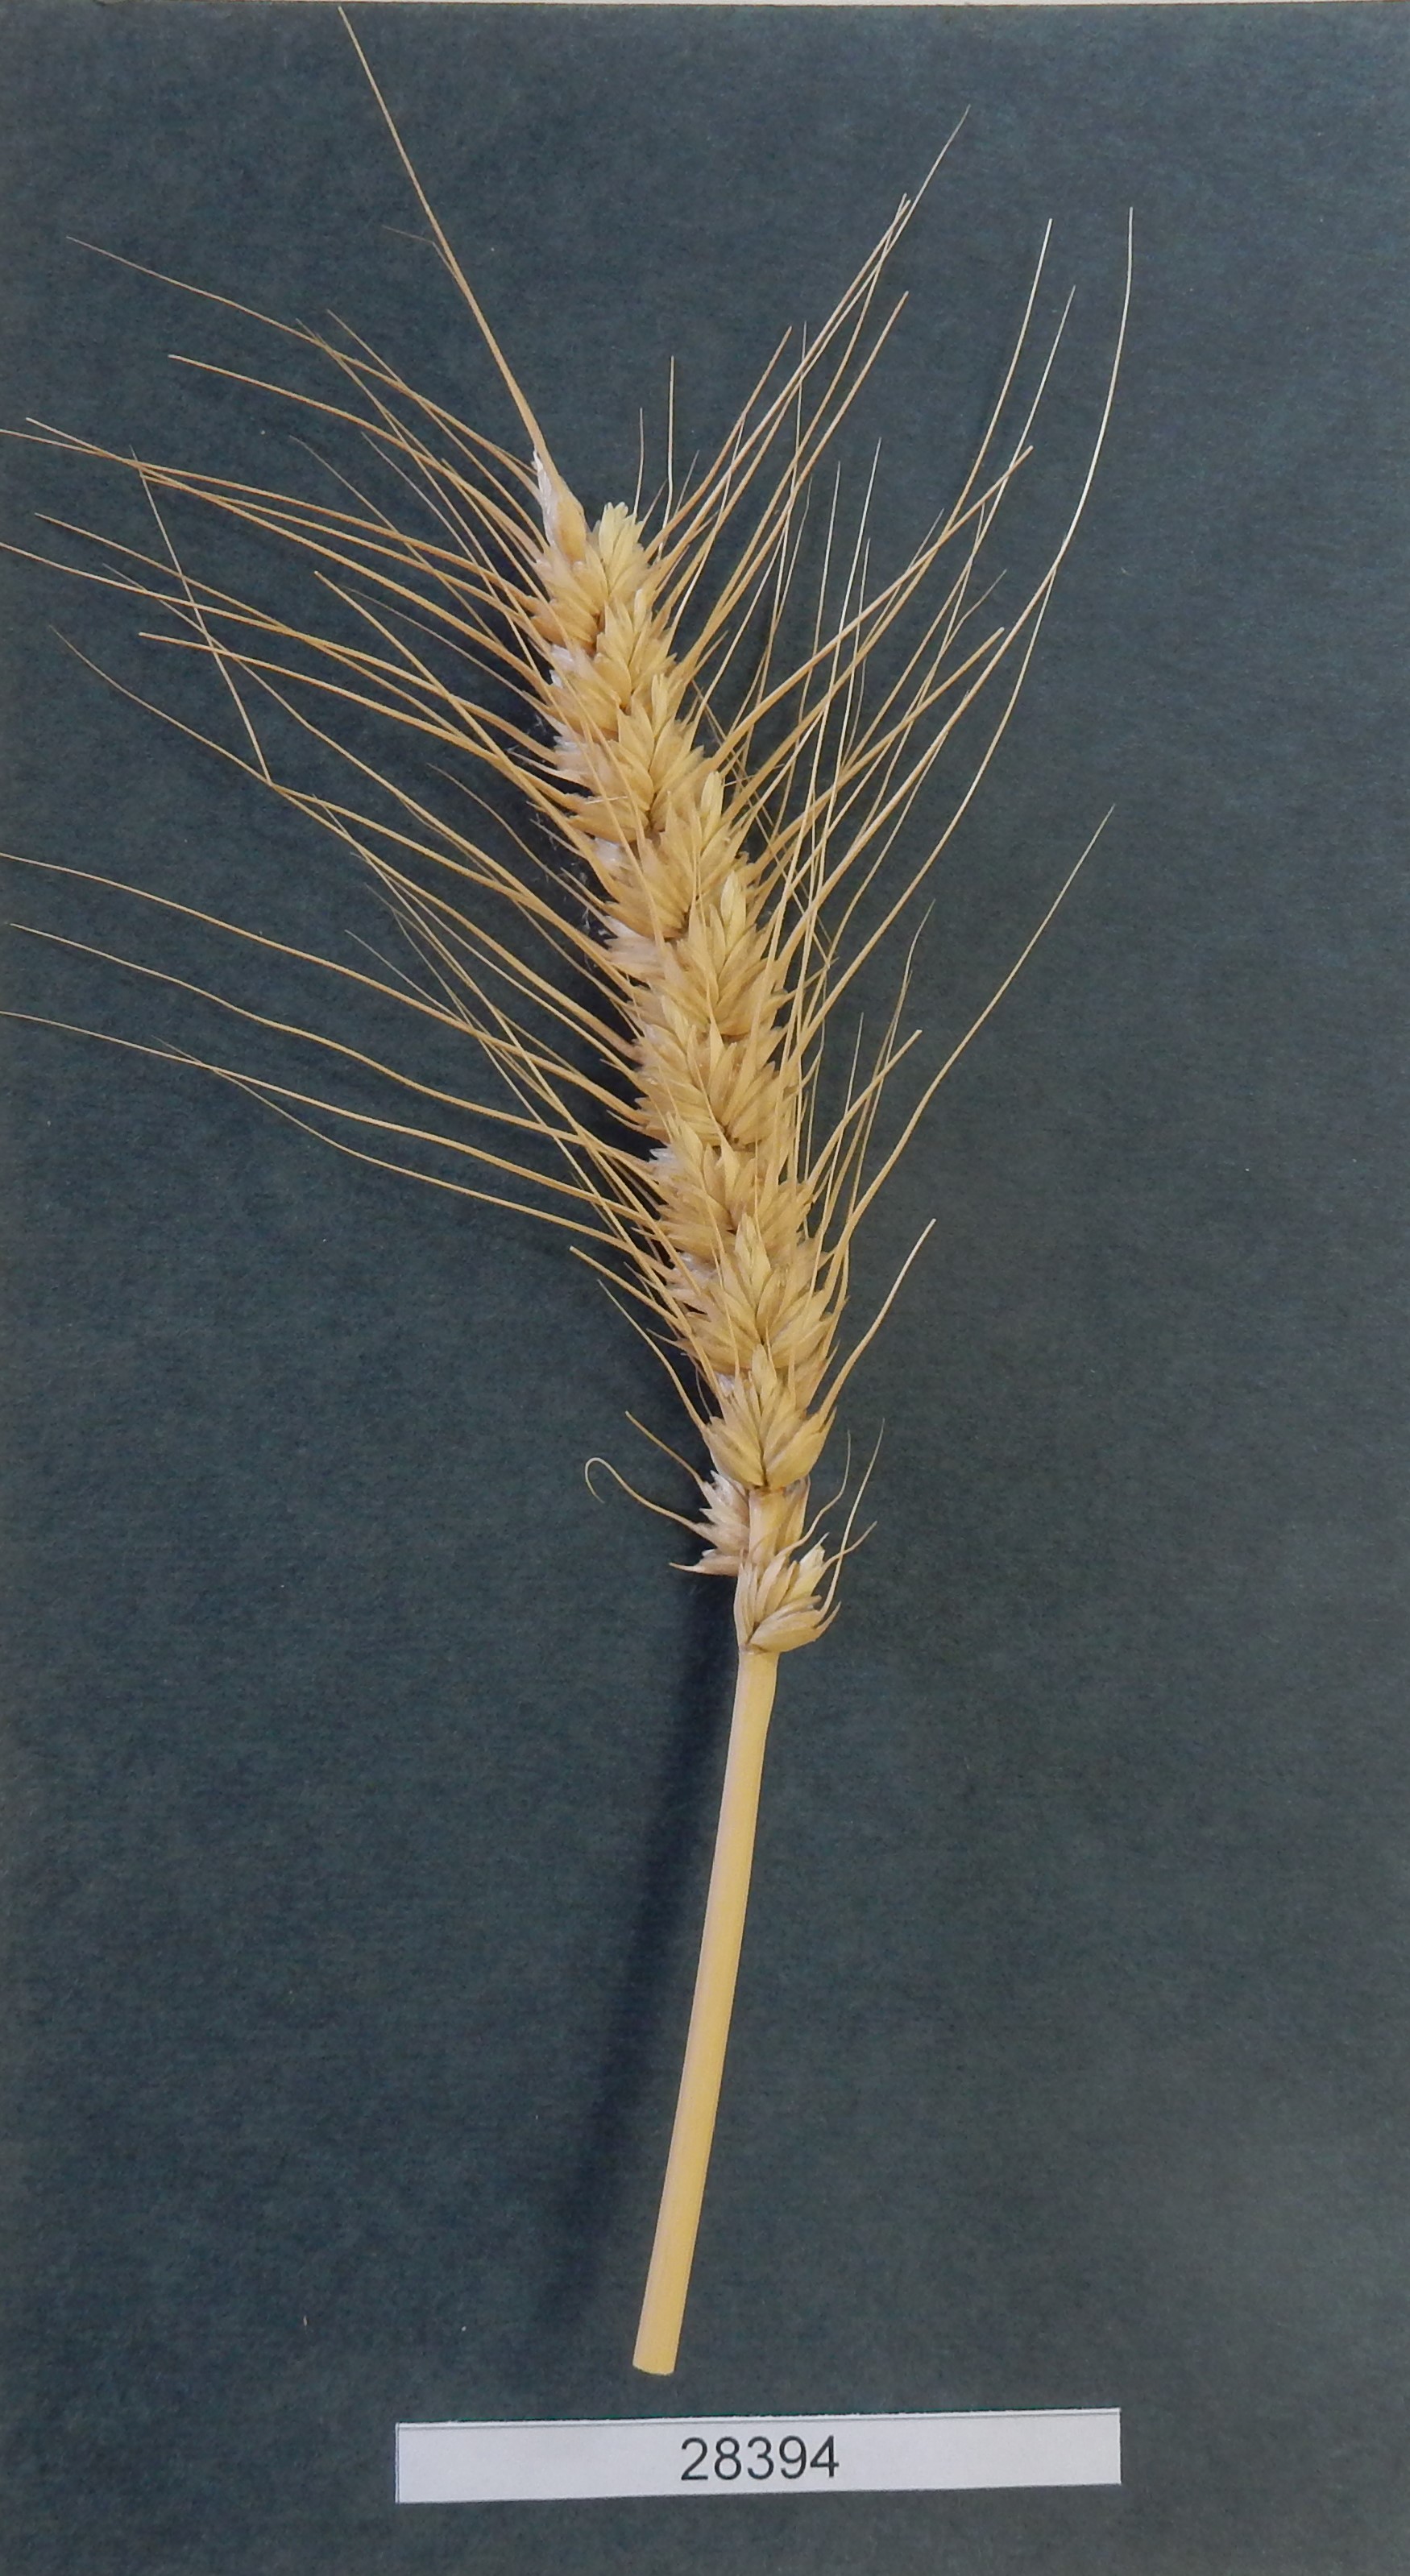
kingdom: Plantae
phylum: Tracheophyta
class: Liliopsida
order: Poales
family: Poaceae
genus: Triticum
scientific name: Triticum aestivum
